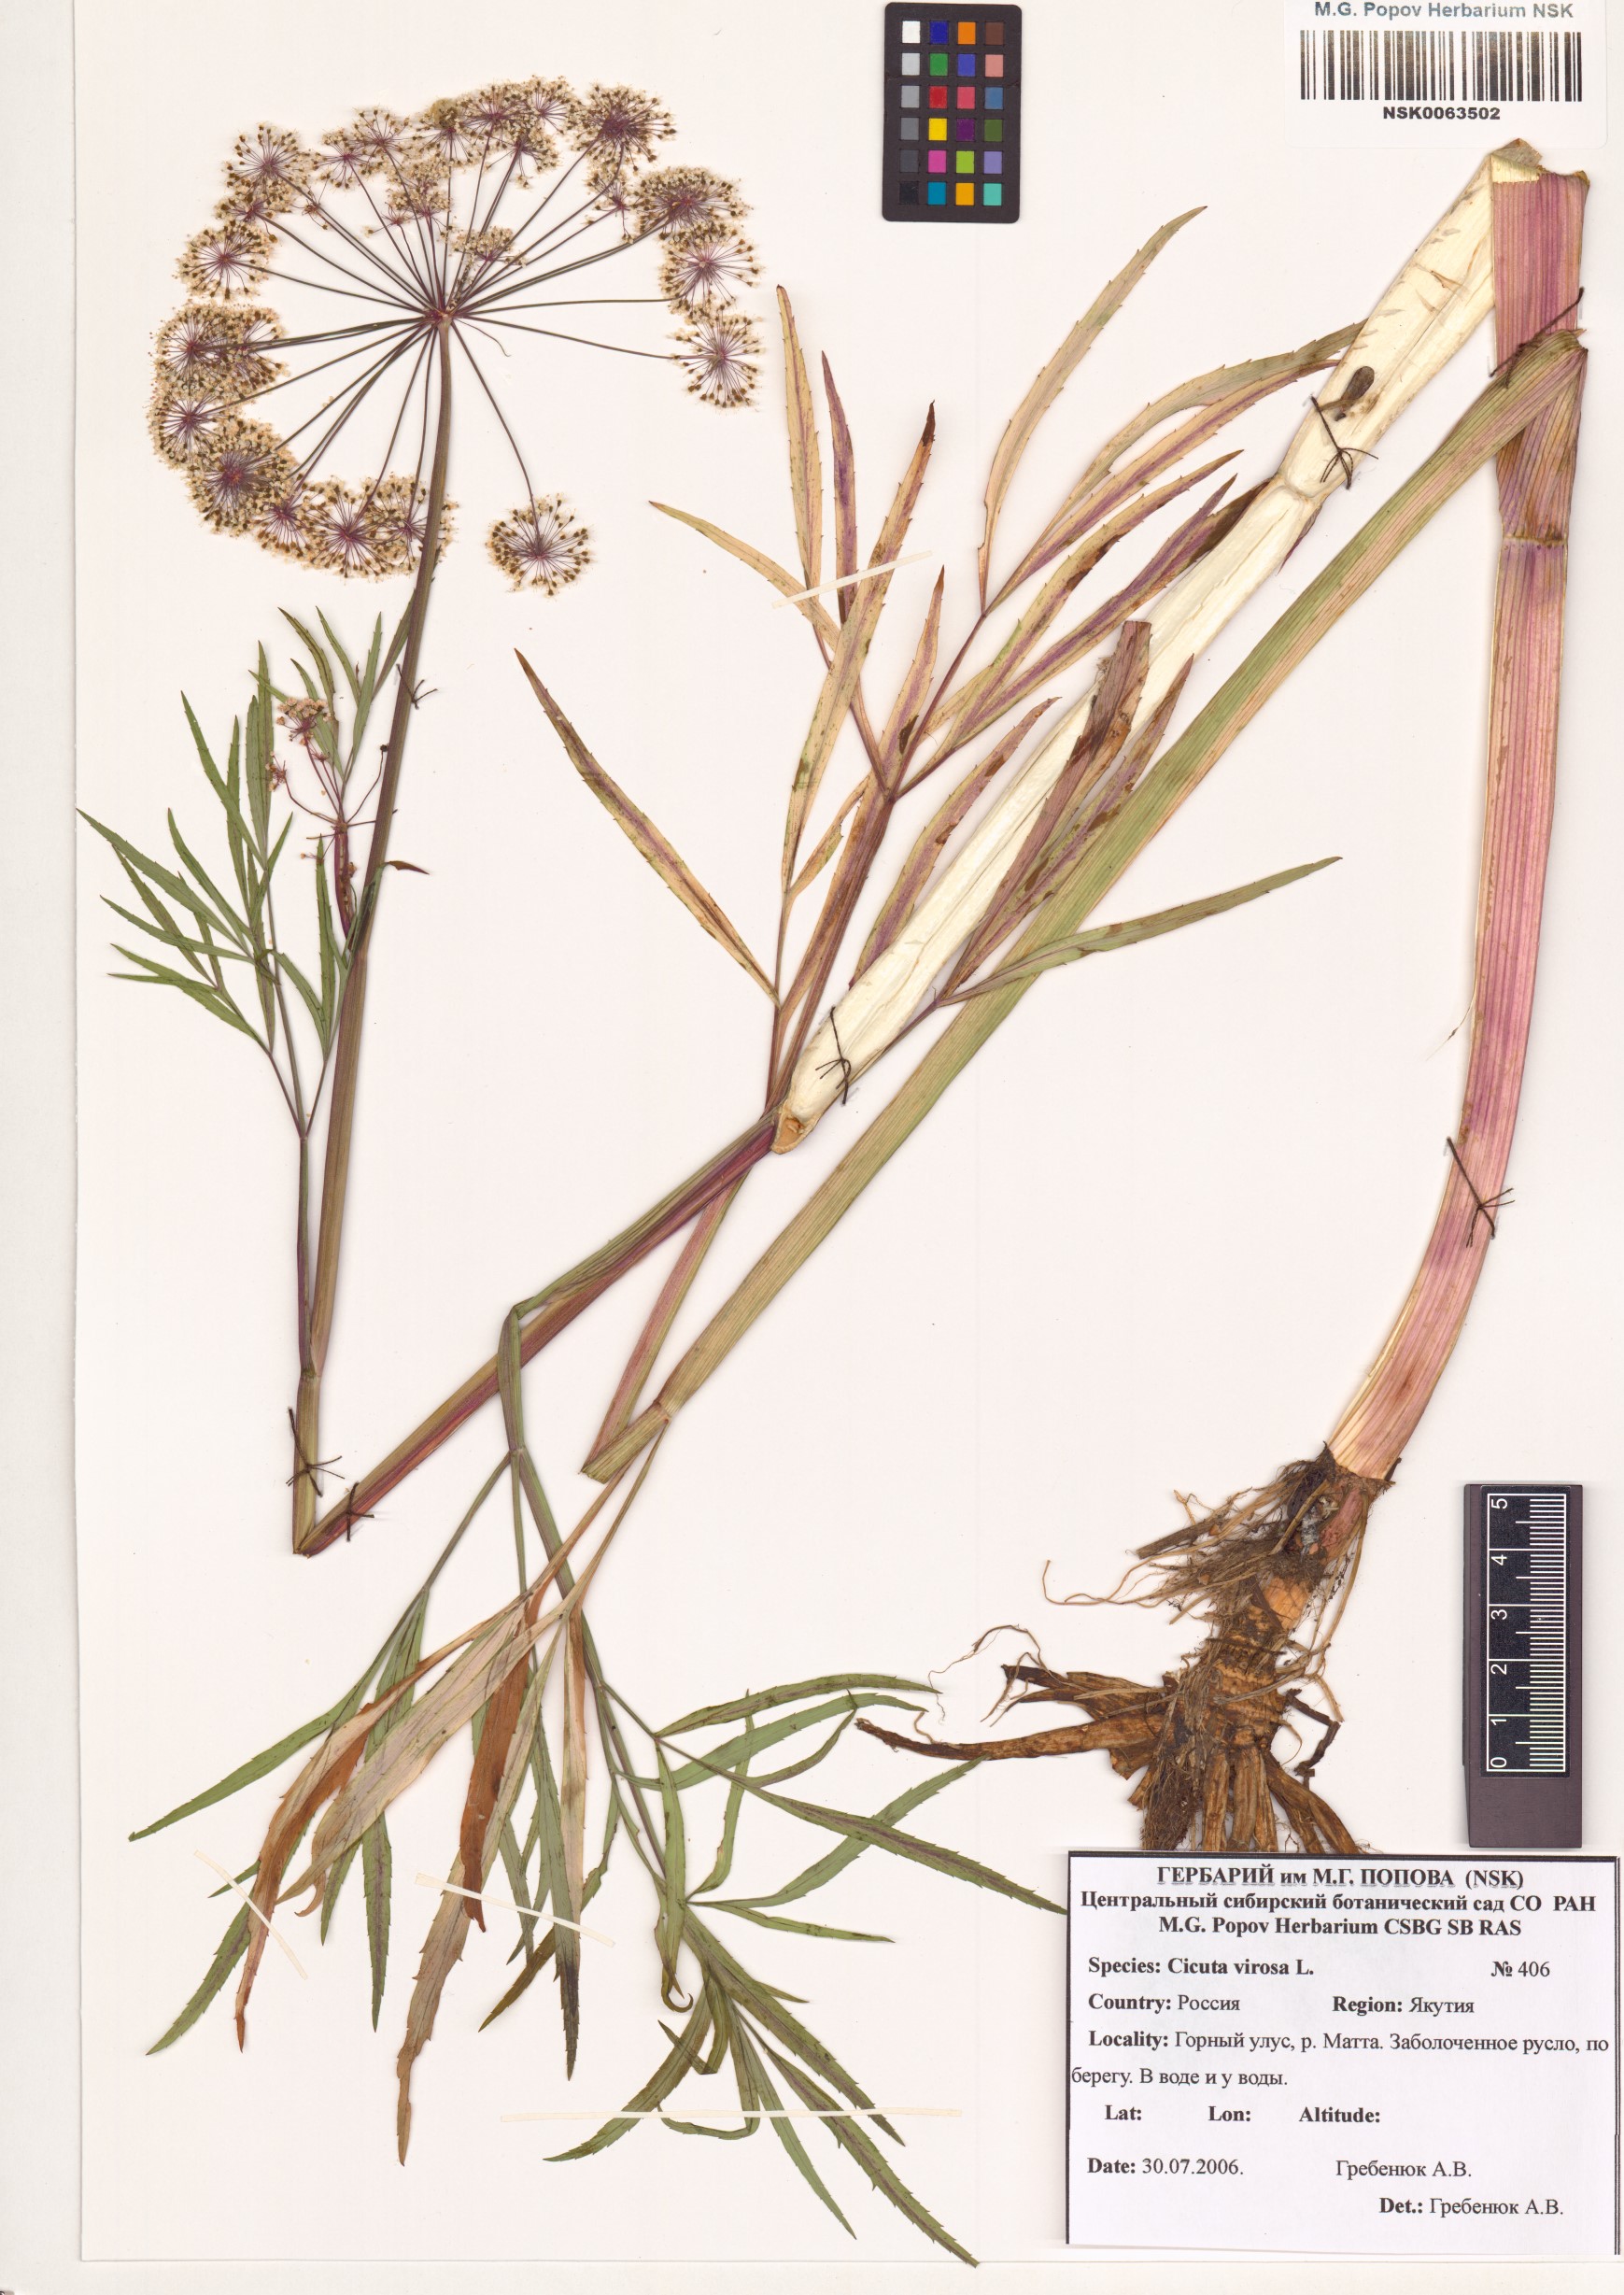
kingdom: Plantae
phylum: Tracheophyta
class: Magnoliopsida
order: Apiales
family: Apiaceae
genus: Cicuta
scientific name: Cicuta virosa
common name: Cowbane
